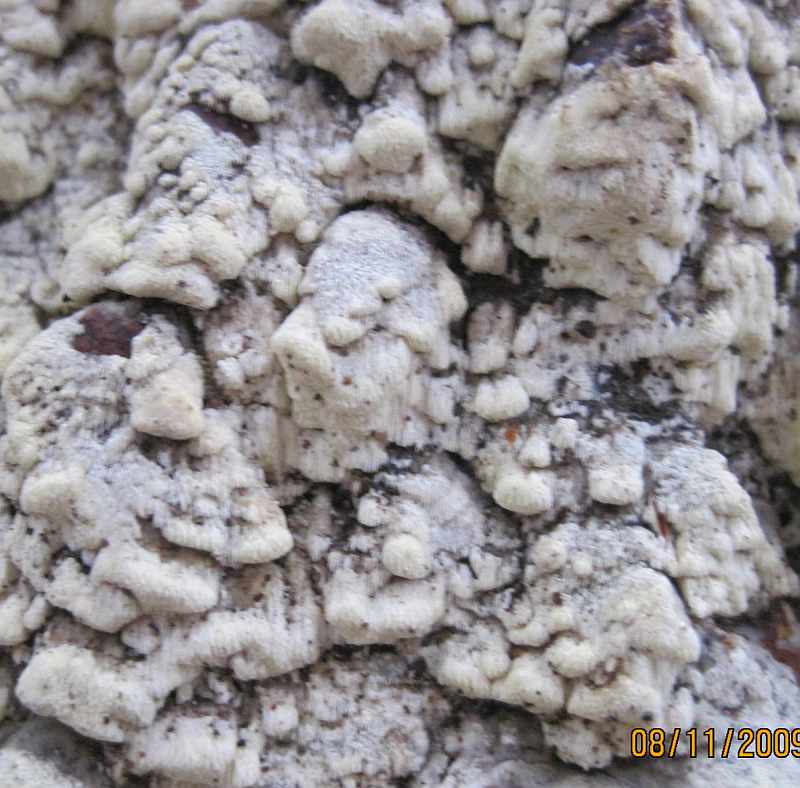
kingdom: Fungi
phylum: Basidiomycota
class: Agaricomycetes
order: Polyporales
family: Fomitopsidaceae
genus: Daedalea
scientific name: Daedalea xantha
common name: gul sejporesvamp
